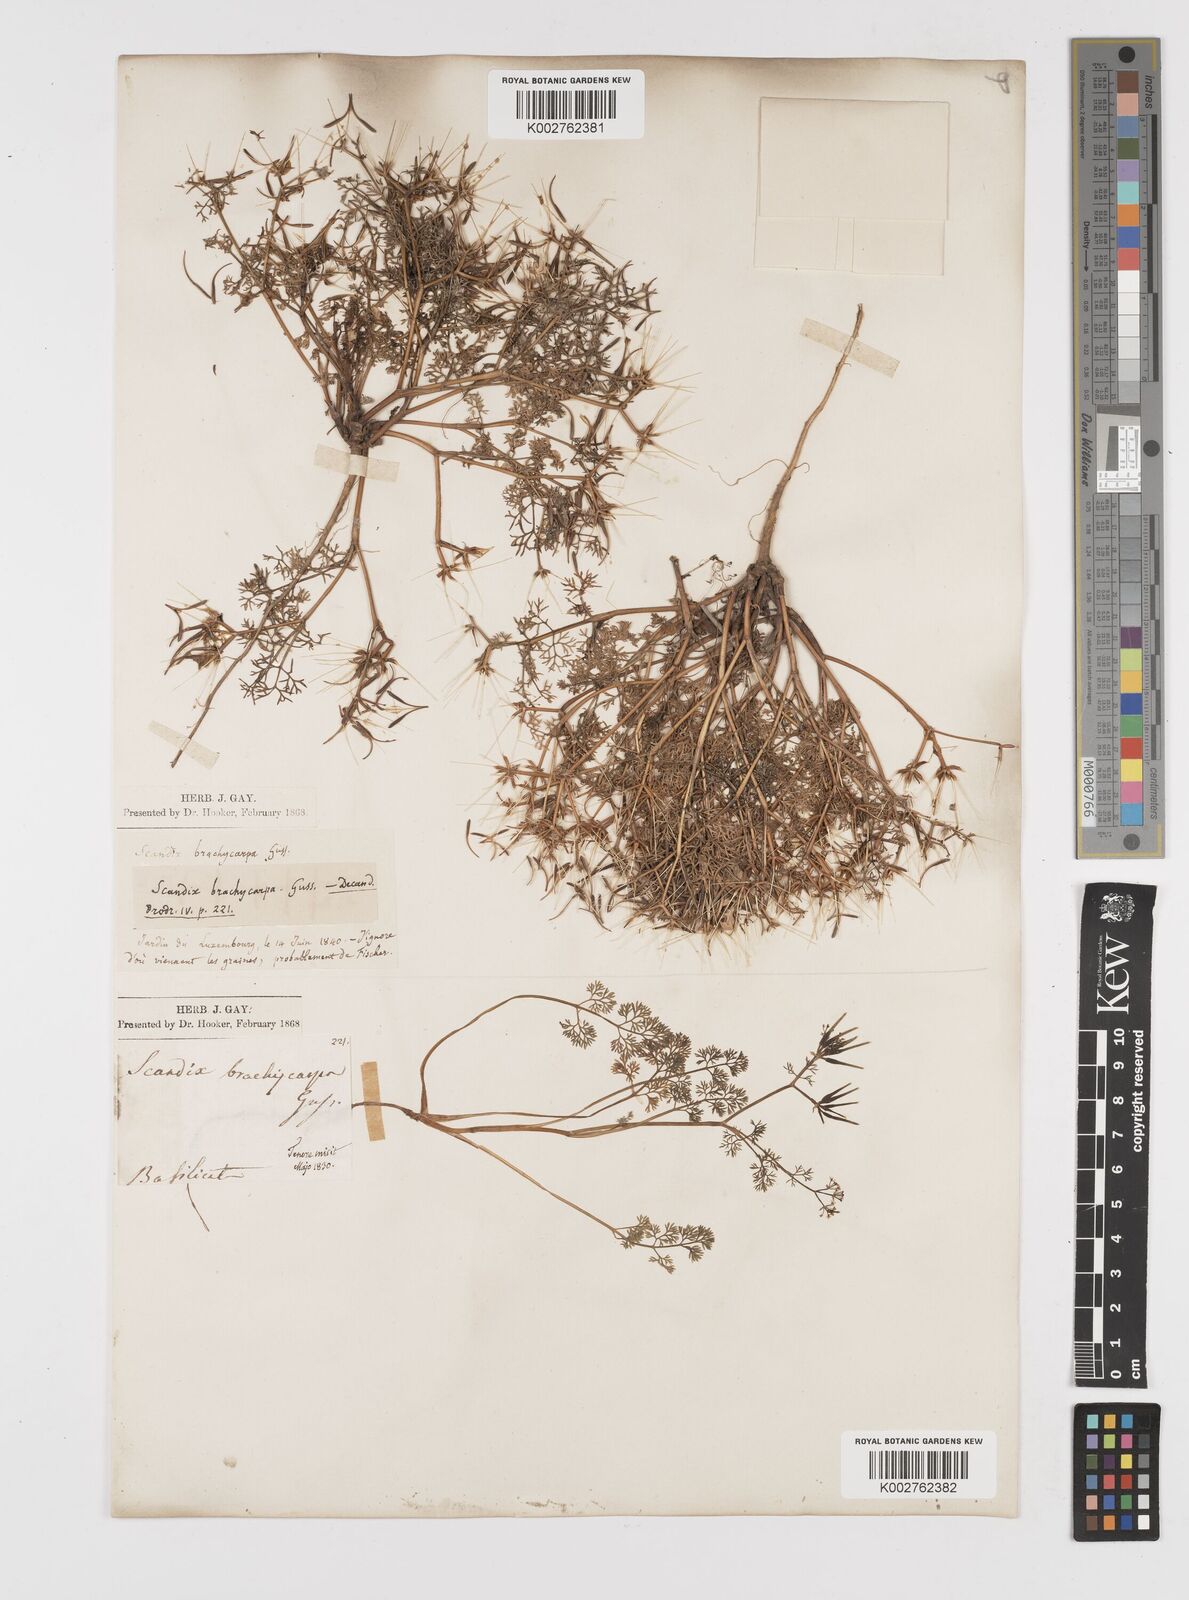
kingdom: Plantae
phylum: Tracheophyta
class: Magnoliopsida
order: Apiales
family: Apiaceae
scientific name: Apiaceae
